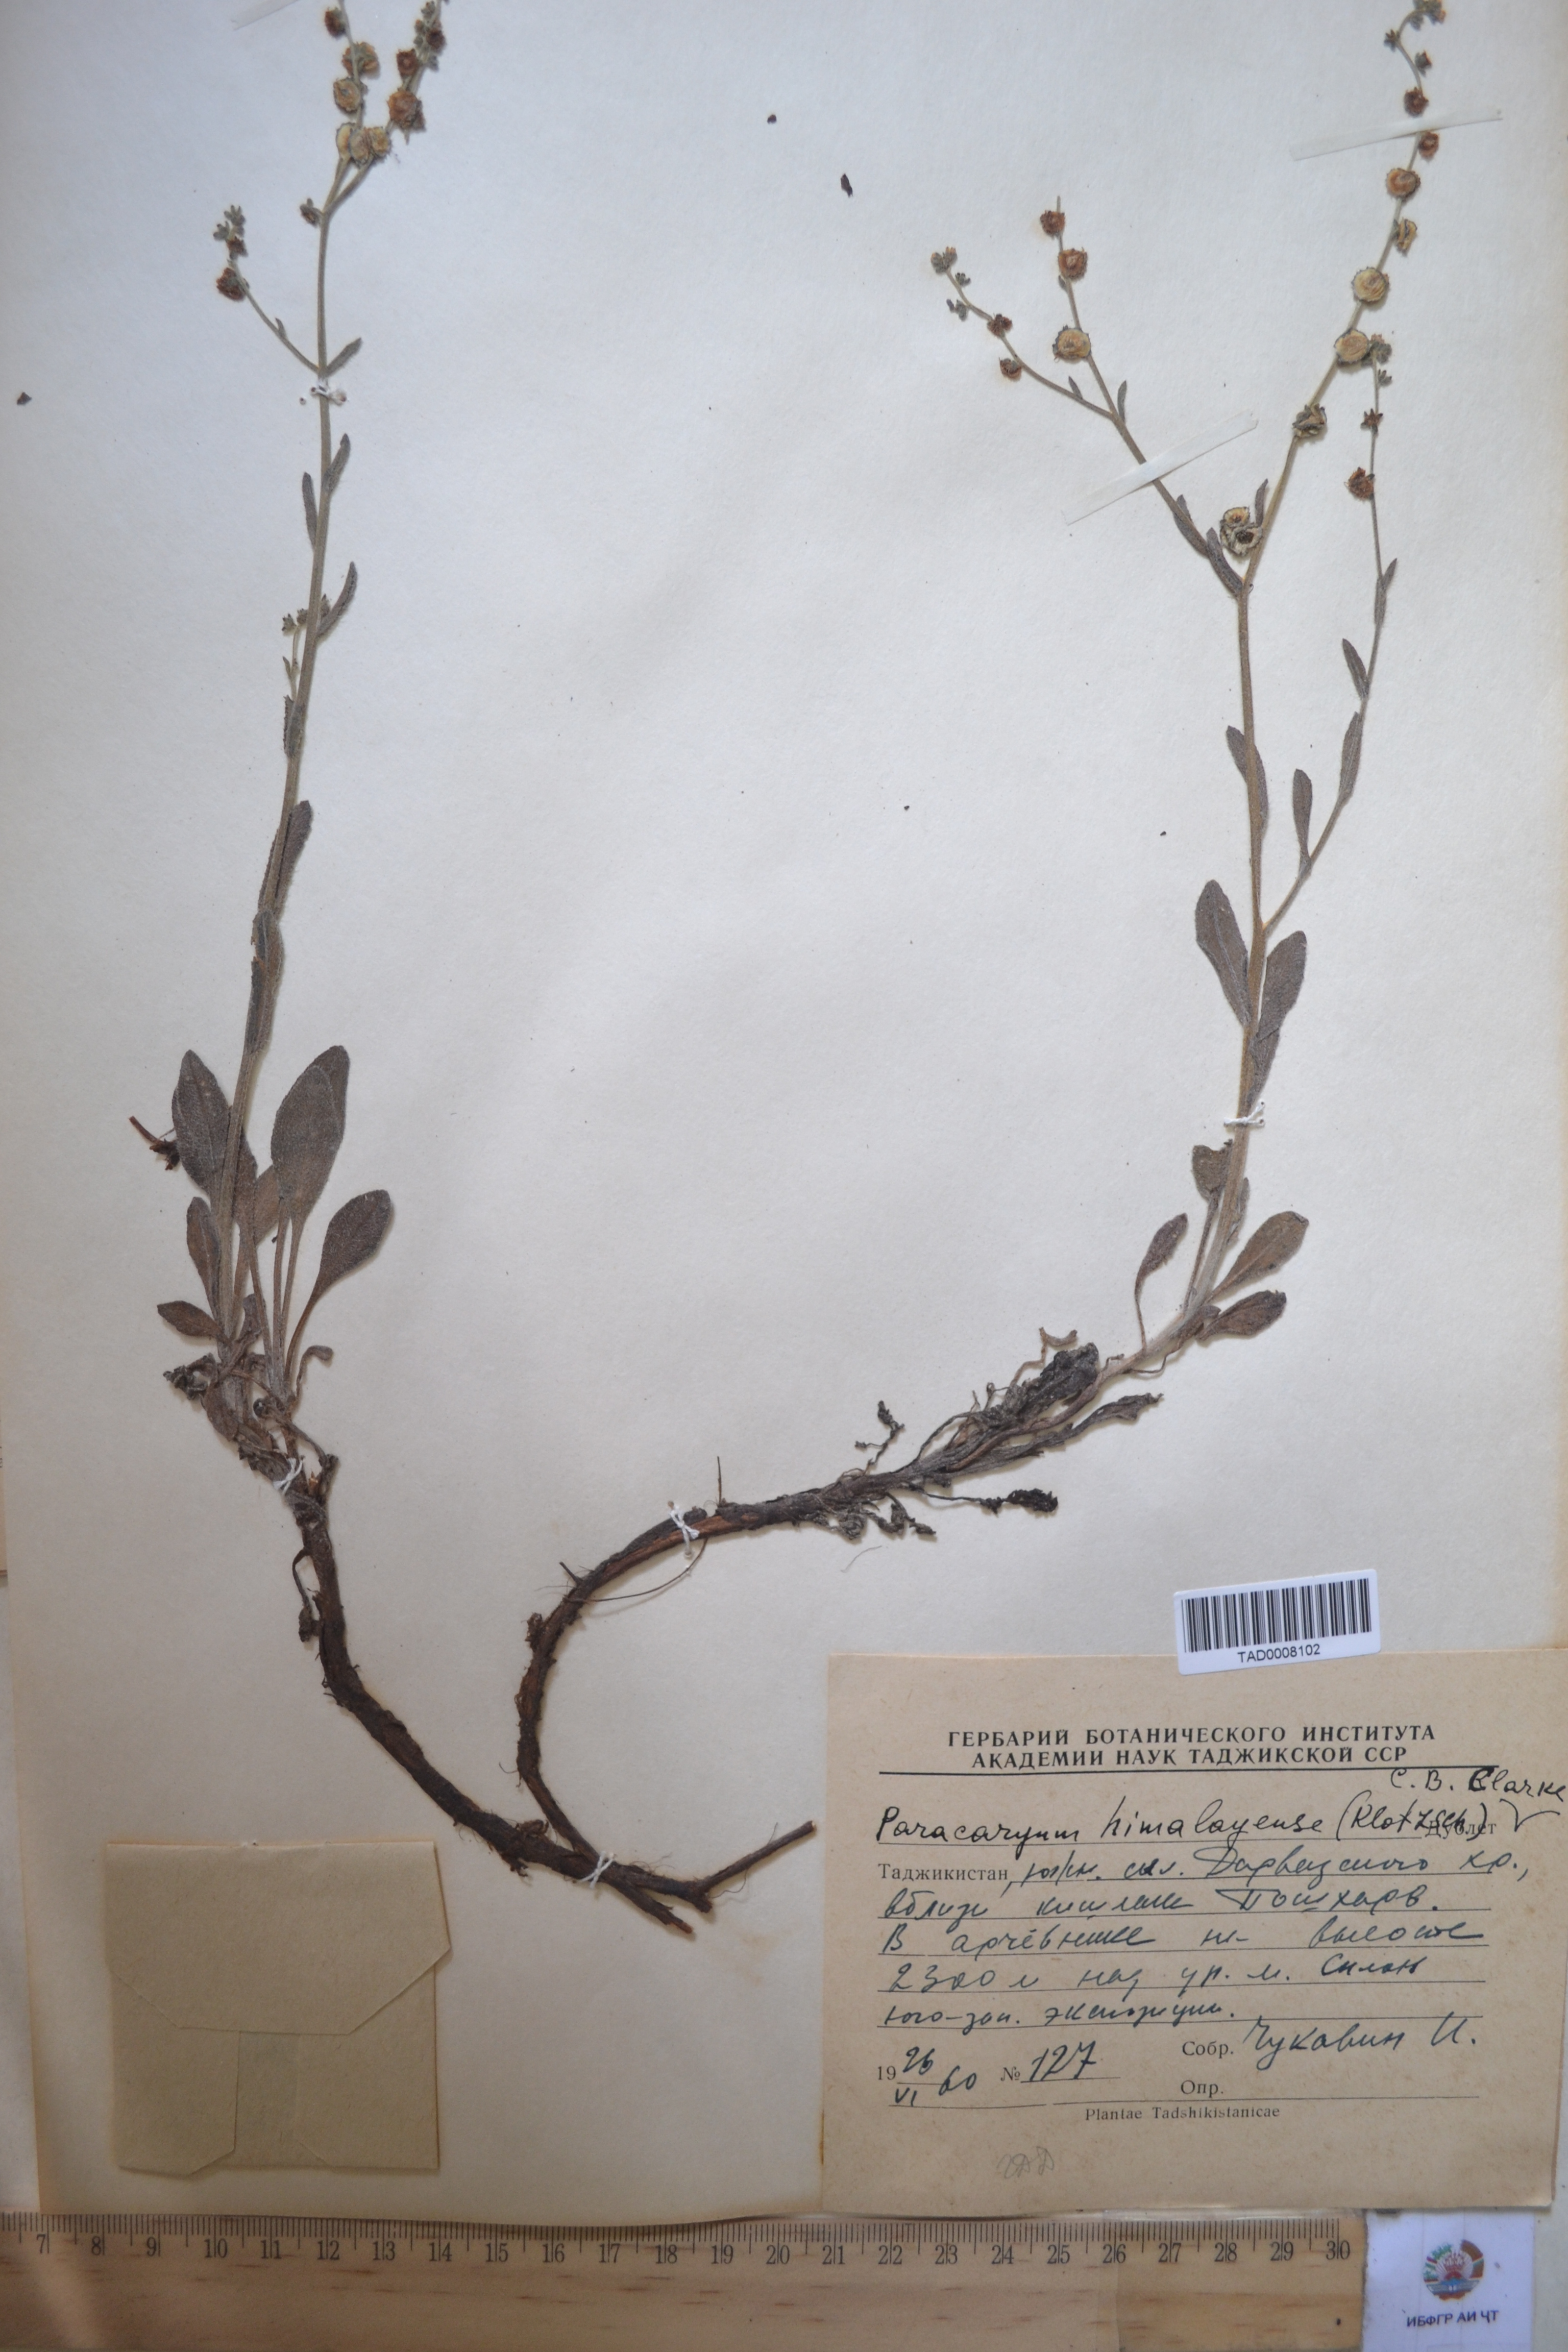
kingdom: Plantae
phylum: Tracheophyta
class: Magnoliopsida
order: Boraginales
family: Boraginaceae
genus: Paracaryum
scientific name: Paracaryum himalayense
